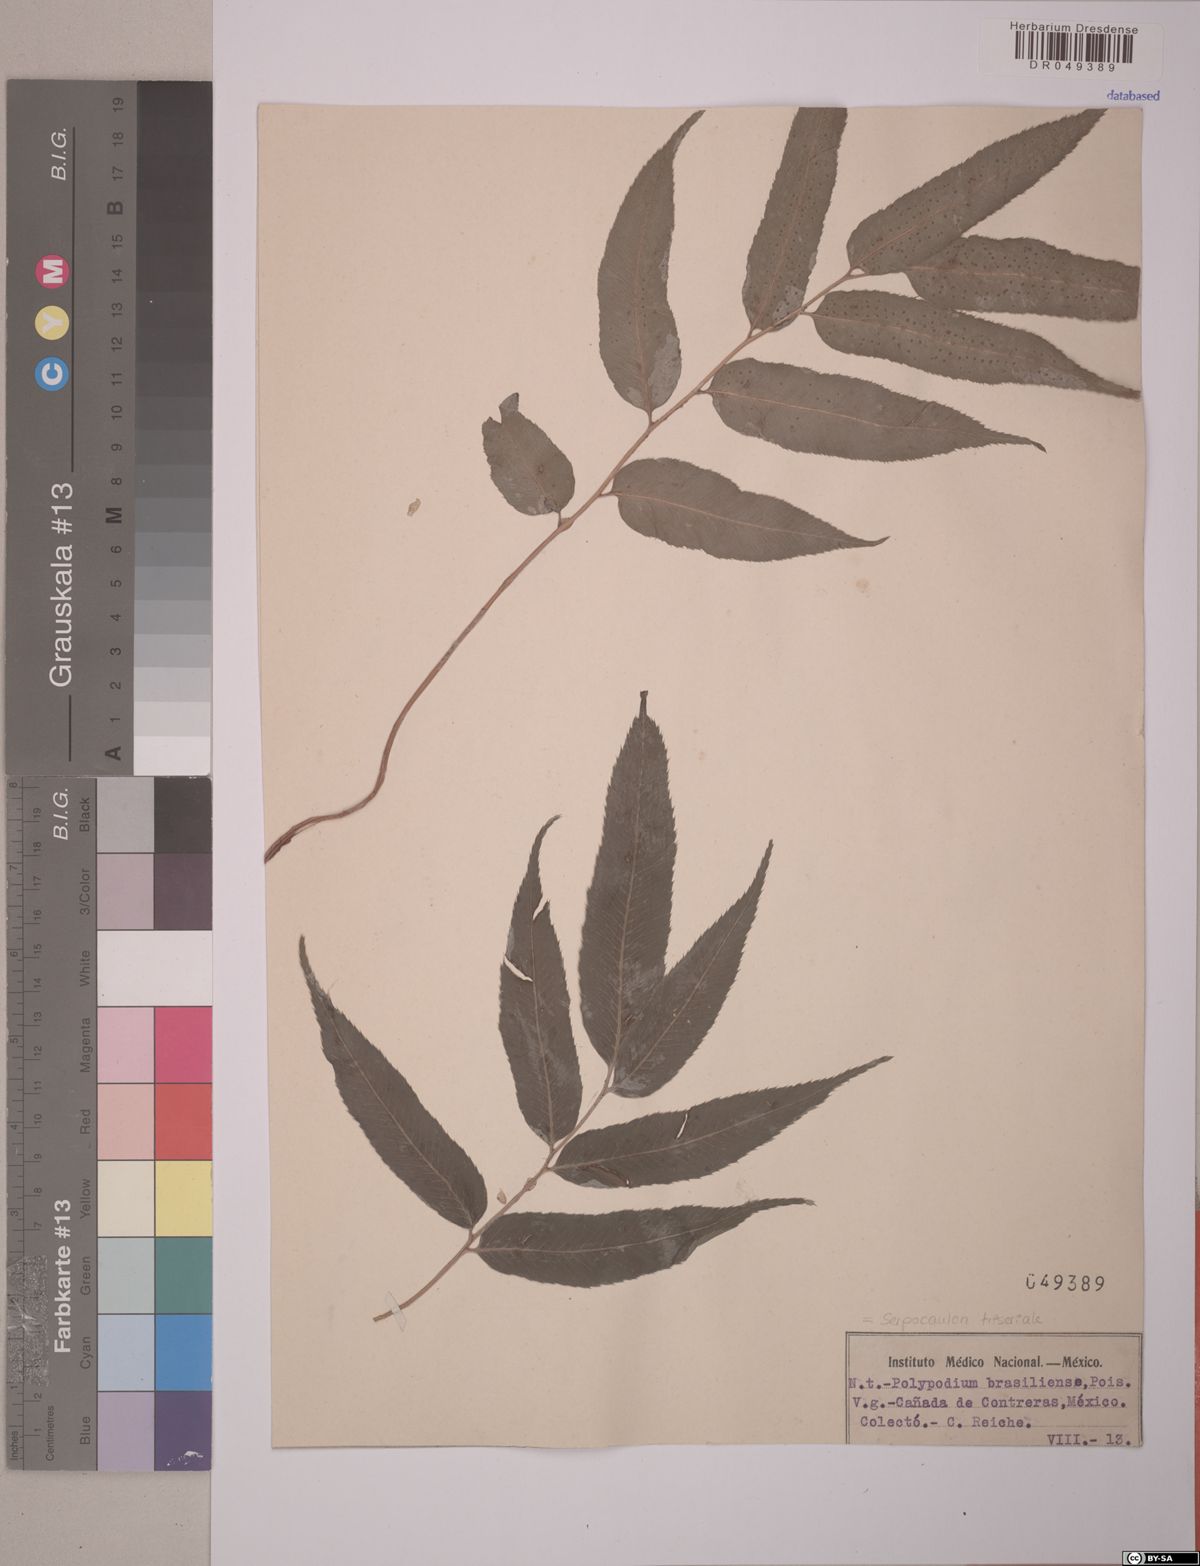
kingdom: Plantae
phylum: Tracheophyta
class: Polypodiopsida
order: Polypodiales
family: Polypodiaceae
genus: Serpocaulon
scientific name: Serpocaulon triseriale
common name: Angle-vein fern
